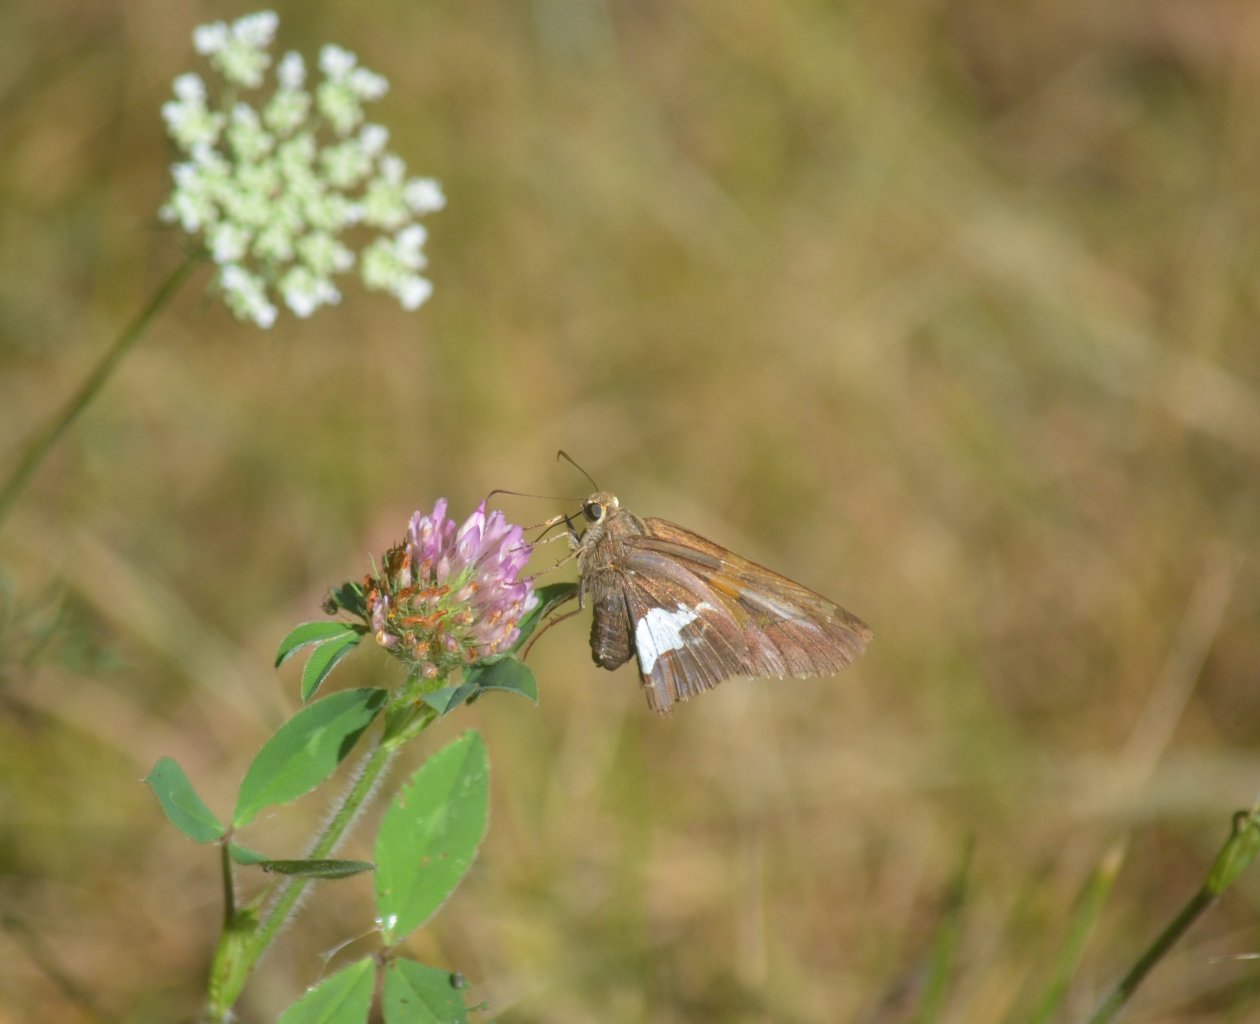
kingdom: Animalia
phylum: Arthropoda
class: Insecta
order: Lepidoptera
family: Hesperiidae
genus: Epargyreus
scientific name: Epargyreus clarus
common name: Silver-spotted Skipper
